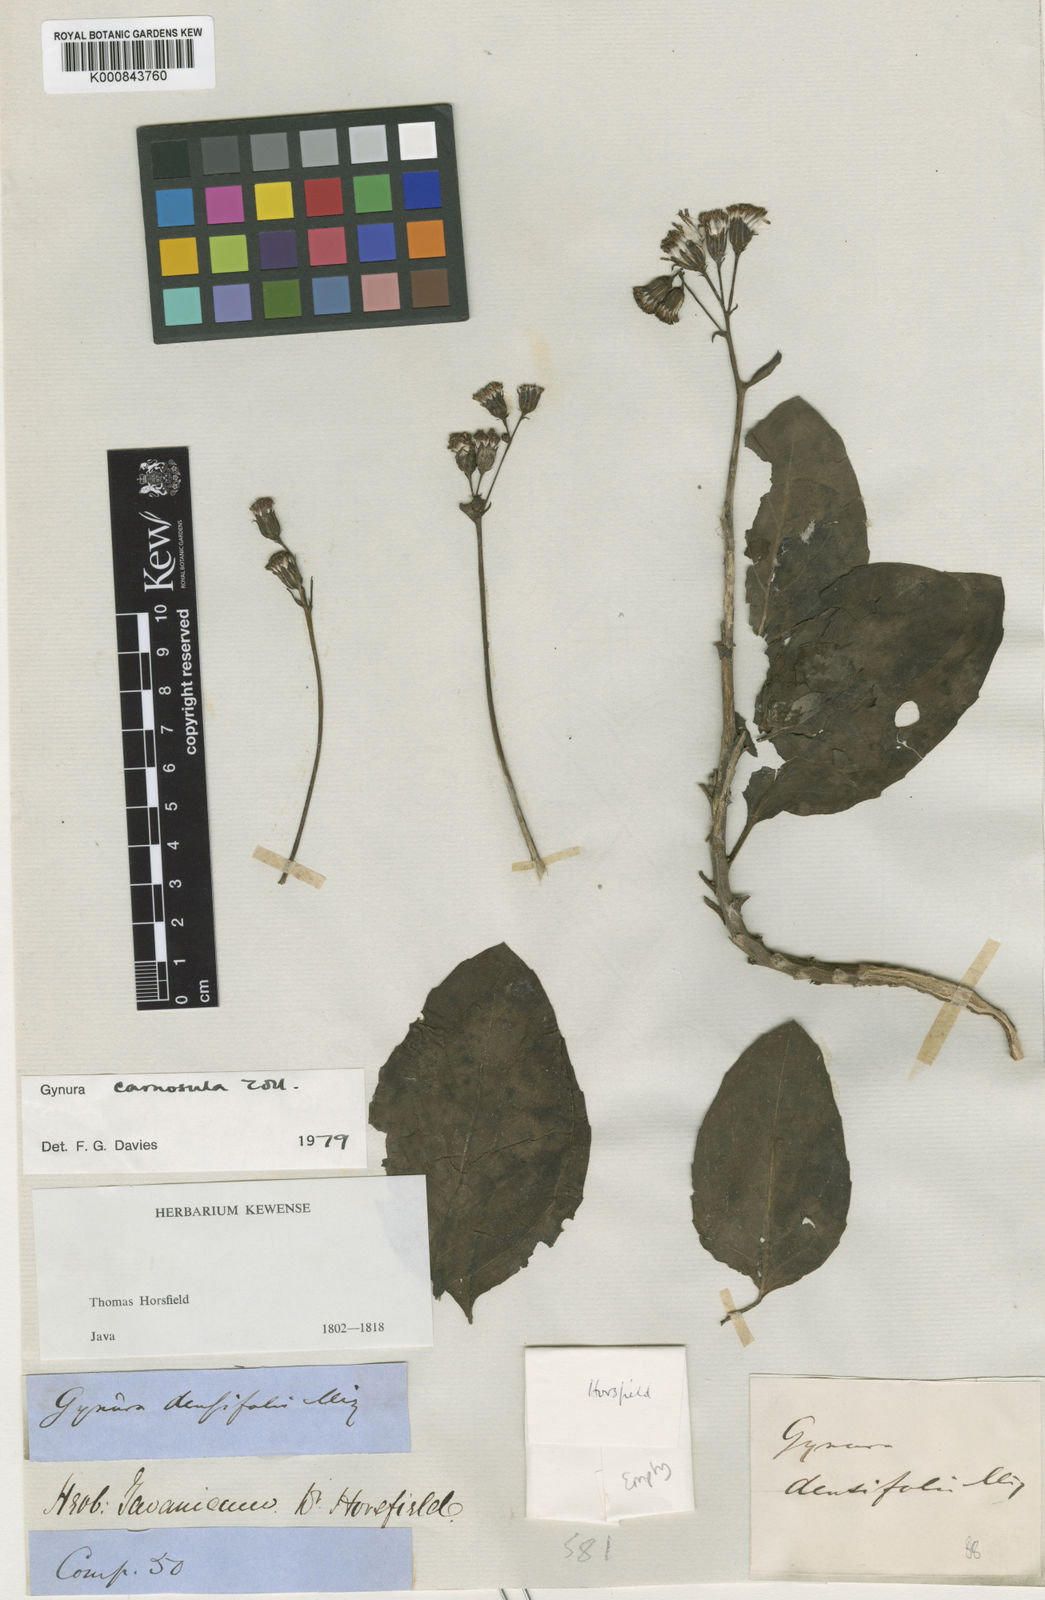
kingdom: Plantae
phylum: Tracheophyta
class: Magnoliopsida
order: Asterales
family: Asteraceae
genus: Gynura
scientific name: Gynura carnosula
